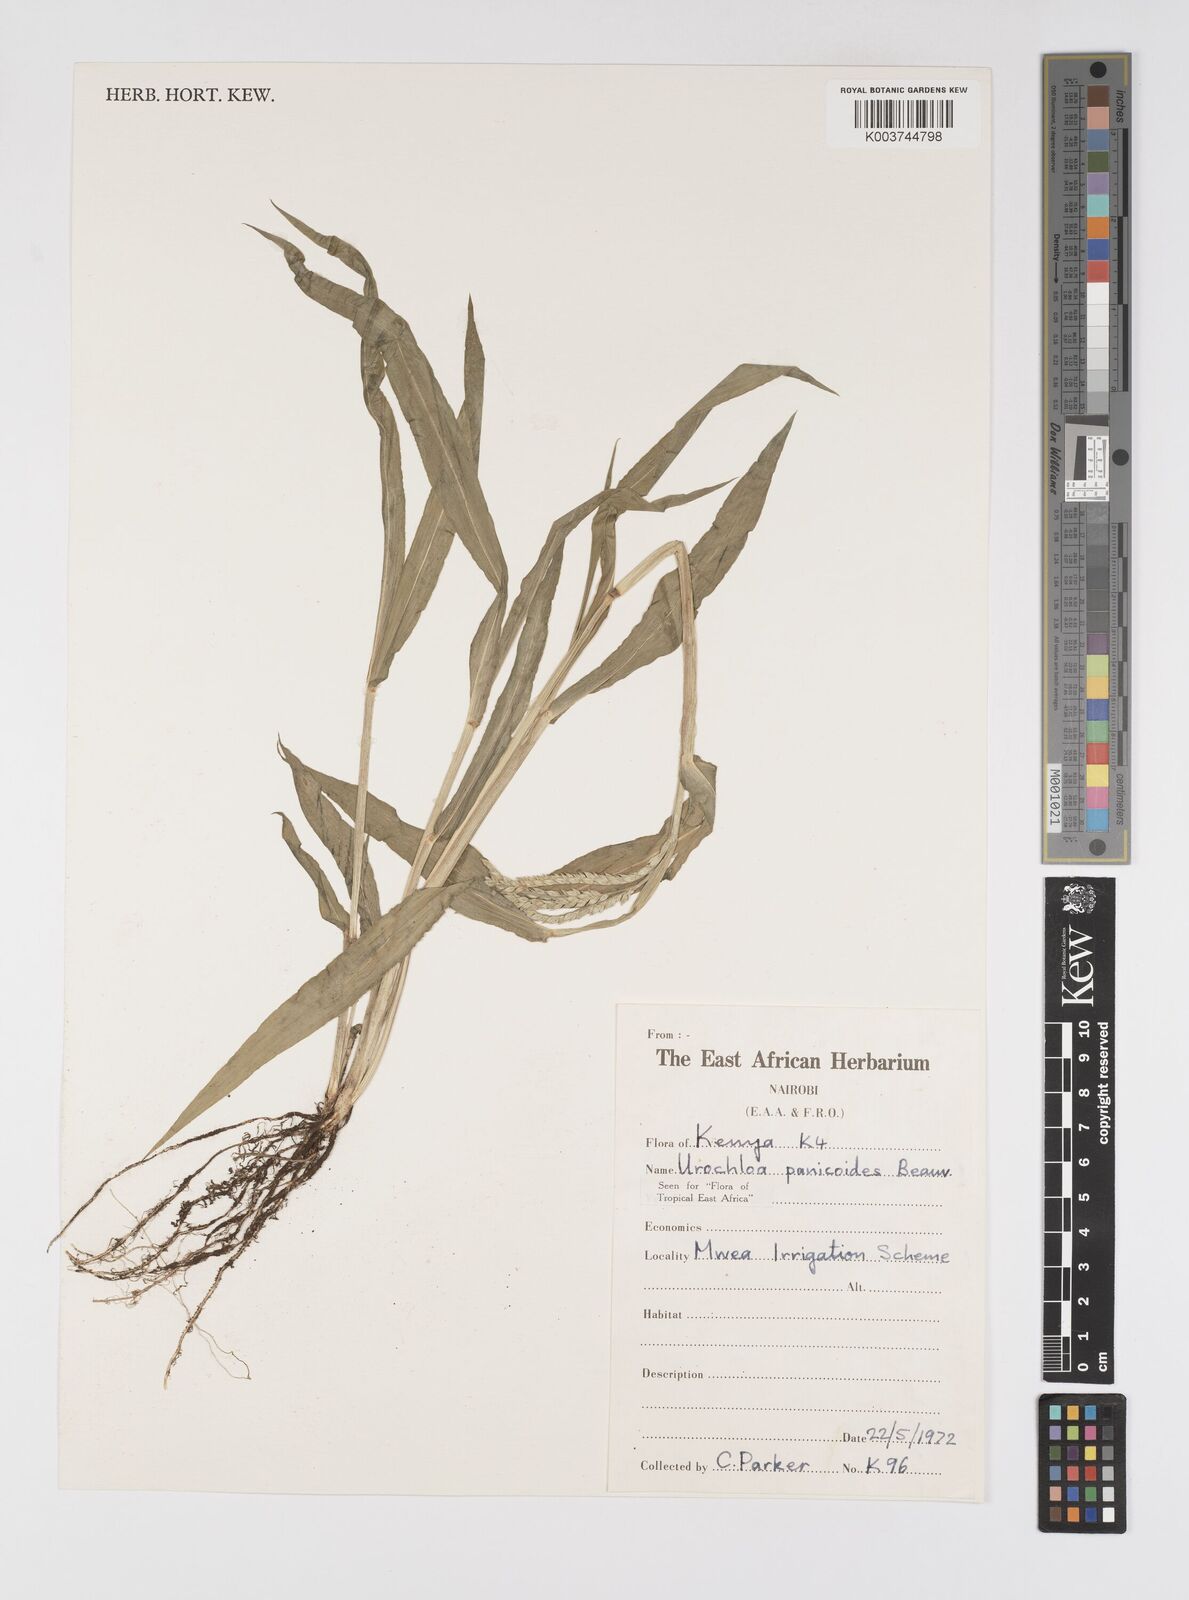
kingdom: Plantae
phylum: Tracheophyta
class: Liliopsida
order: Poales
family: Poaceae
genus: Urochloa
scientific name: Urochloa panicoides
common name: Sharp-flowered signal-grass
